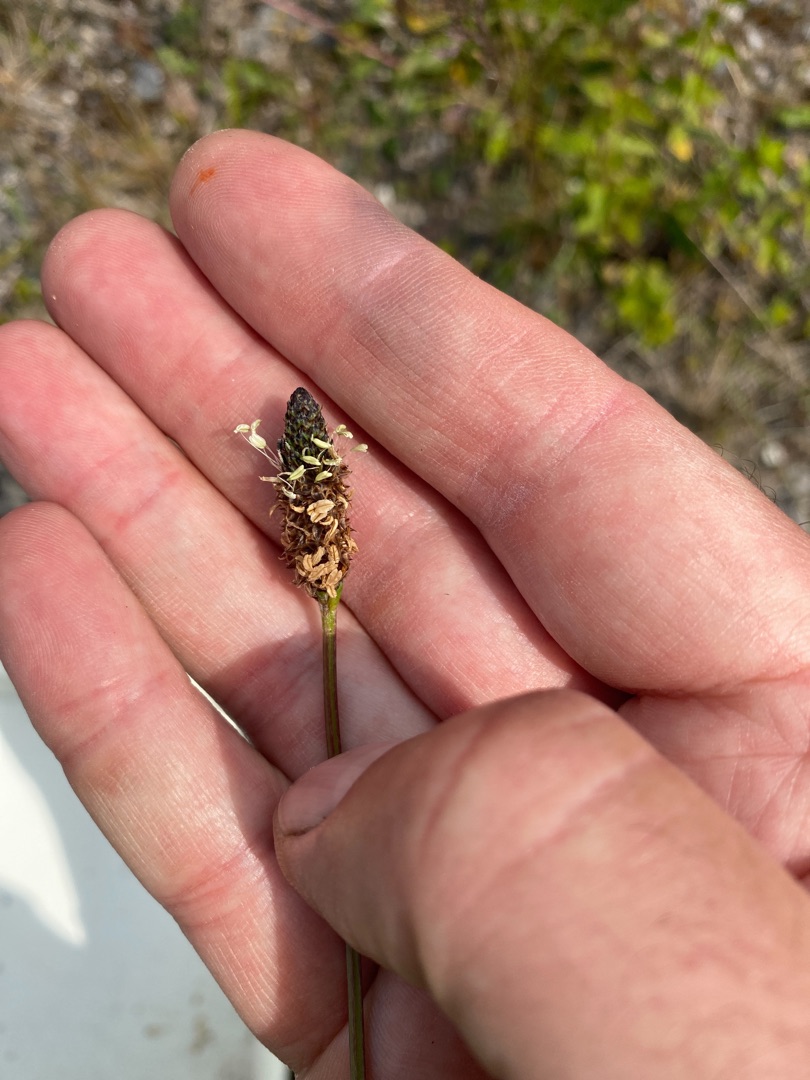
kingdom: Plantae
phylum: Tracheophyta
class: Magnoliopsida
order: Lamiales
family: Plantaginaceae
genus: Plantago
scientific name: Plantago lanceolata
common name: Lancet-vejbred
